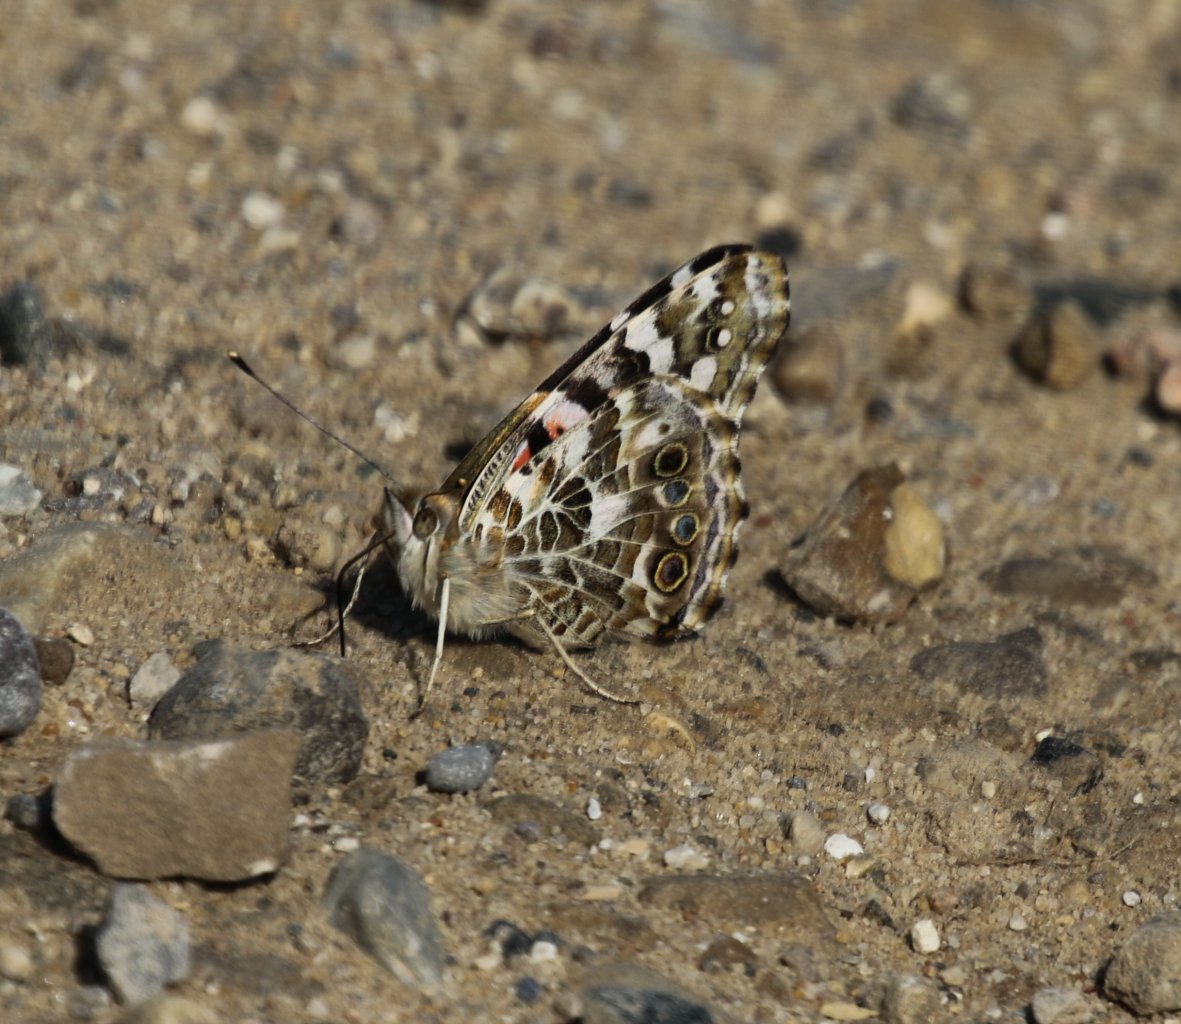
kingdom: Animalia
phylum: Arthropoda
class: Insecta
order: Lepidoptera
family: Nymphalidae
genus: Vanessa
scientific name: Vanessa cardui
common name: Painted Lady
